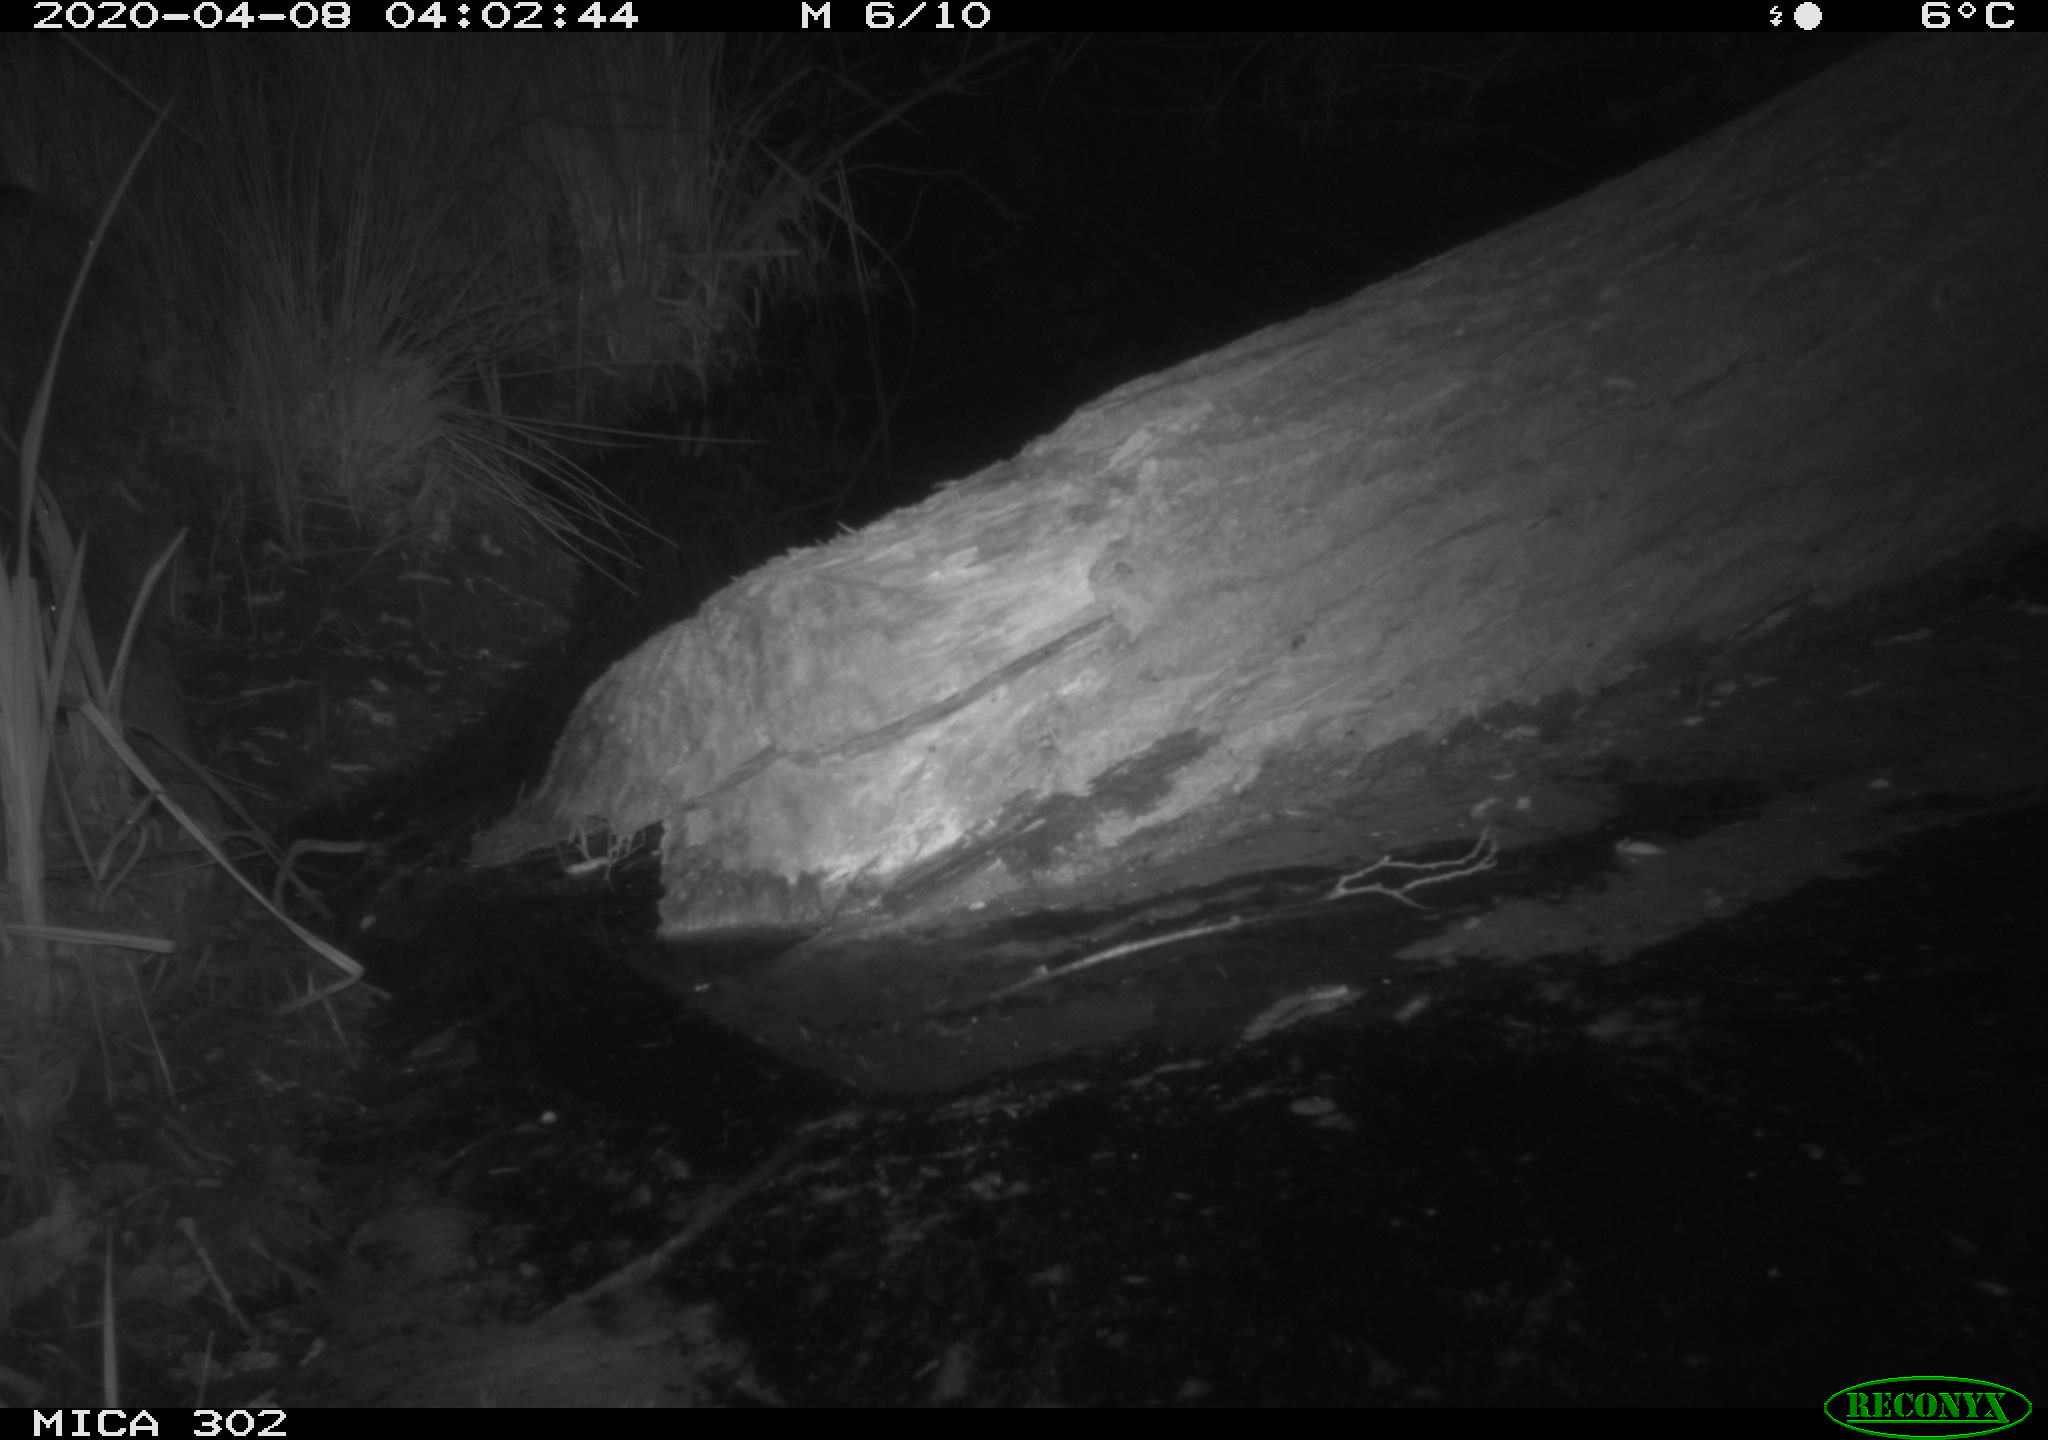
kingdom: Animalia
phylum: Chordata
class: Mammalia
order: Carnivora
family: Canidae
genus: Vulpes
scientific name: Vulpes vulpes
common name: Red fox
